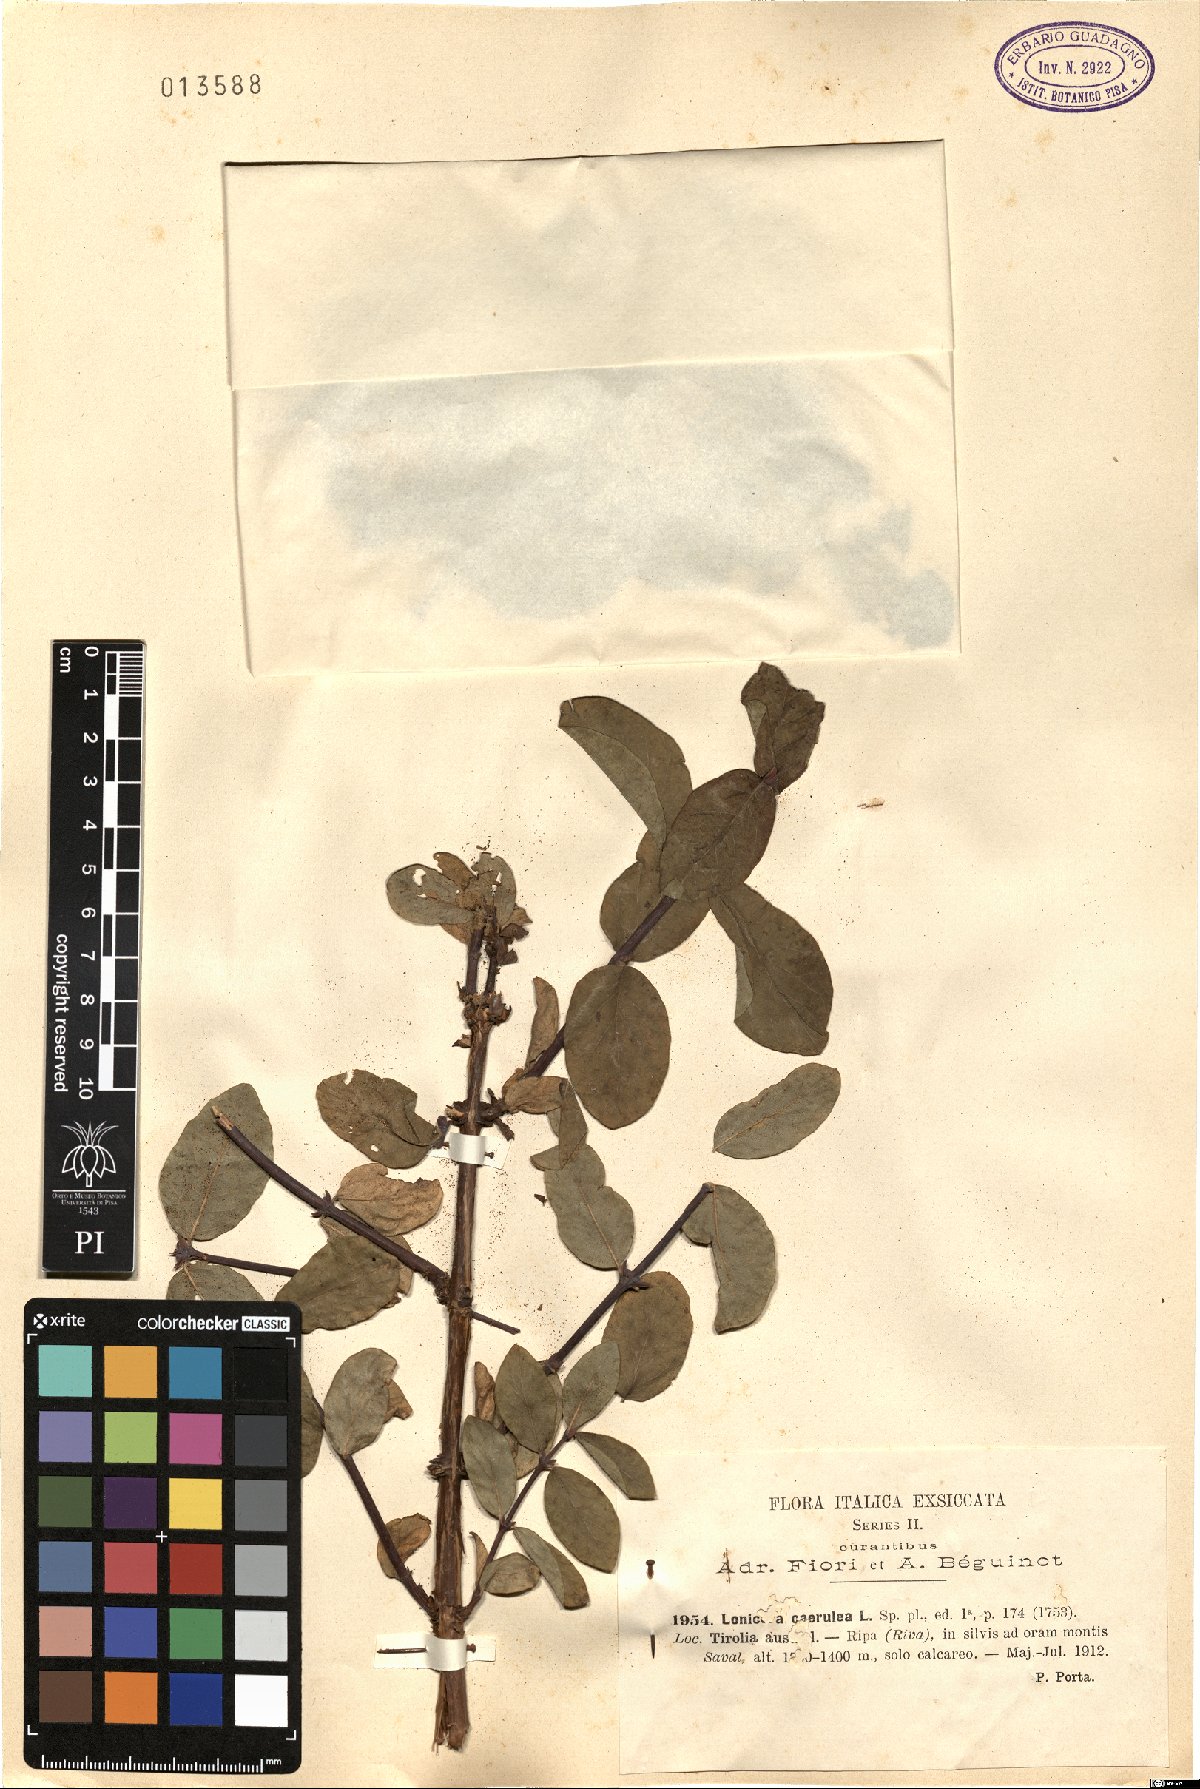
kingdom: Plantae
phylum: Tracheophyta
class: Magnoliopsida
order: Dipsacales
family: Caprifoliaceae
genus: Lonicera
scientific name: Lonicera caerulea
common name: Blue honeysuckle
